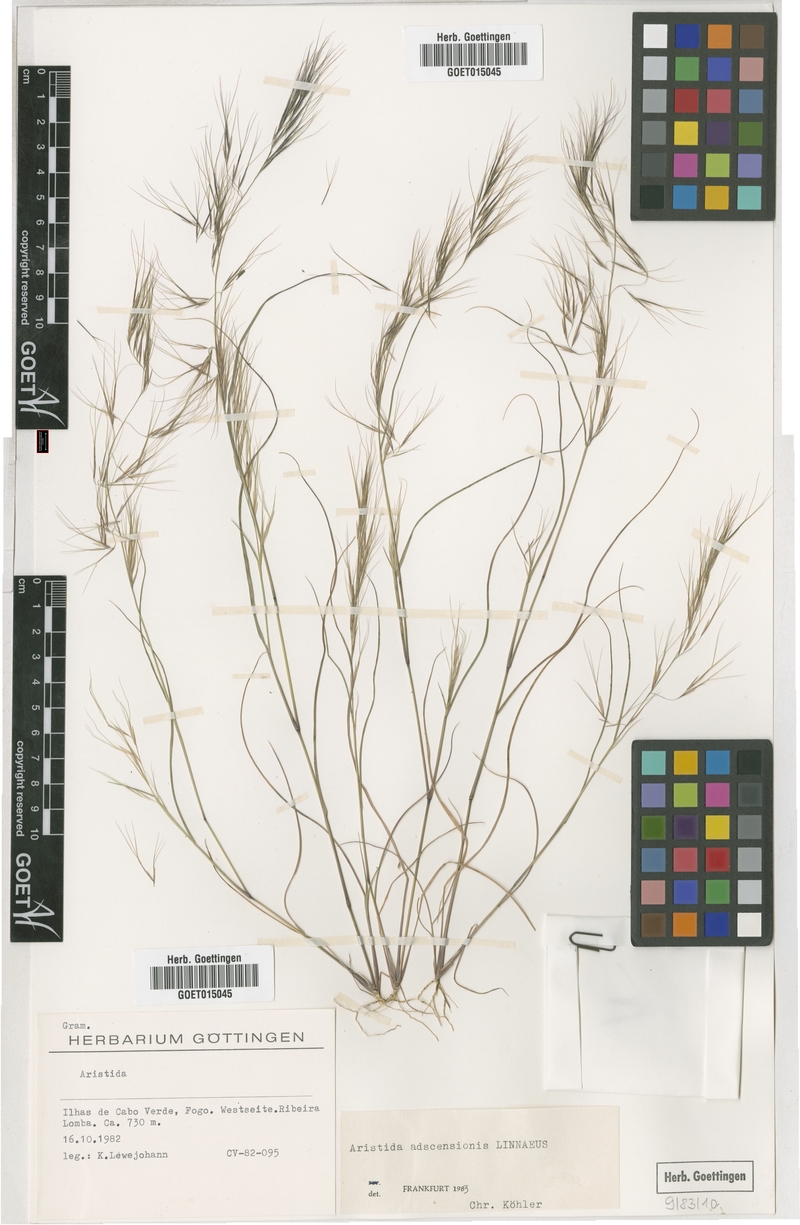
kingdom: Plantae
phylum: Tracheophyta
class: Liliopsida
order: Poales
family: Poaceae
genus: Aristida
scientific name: Aristida adscensionis
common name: Sixweeks threeawn
